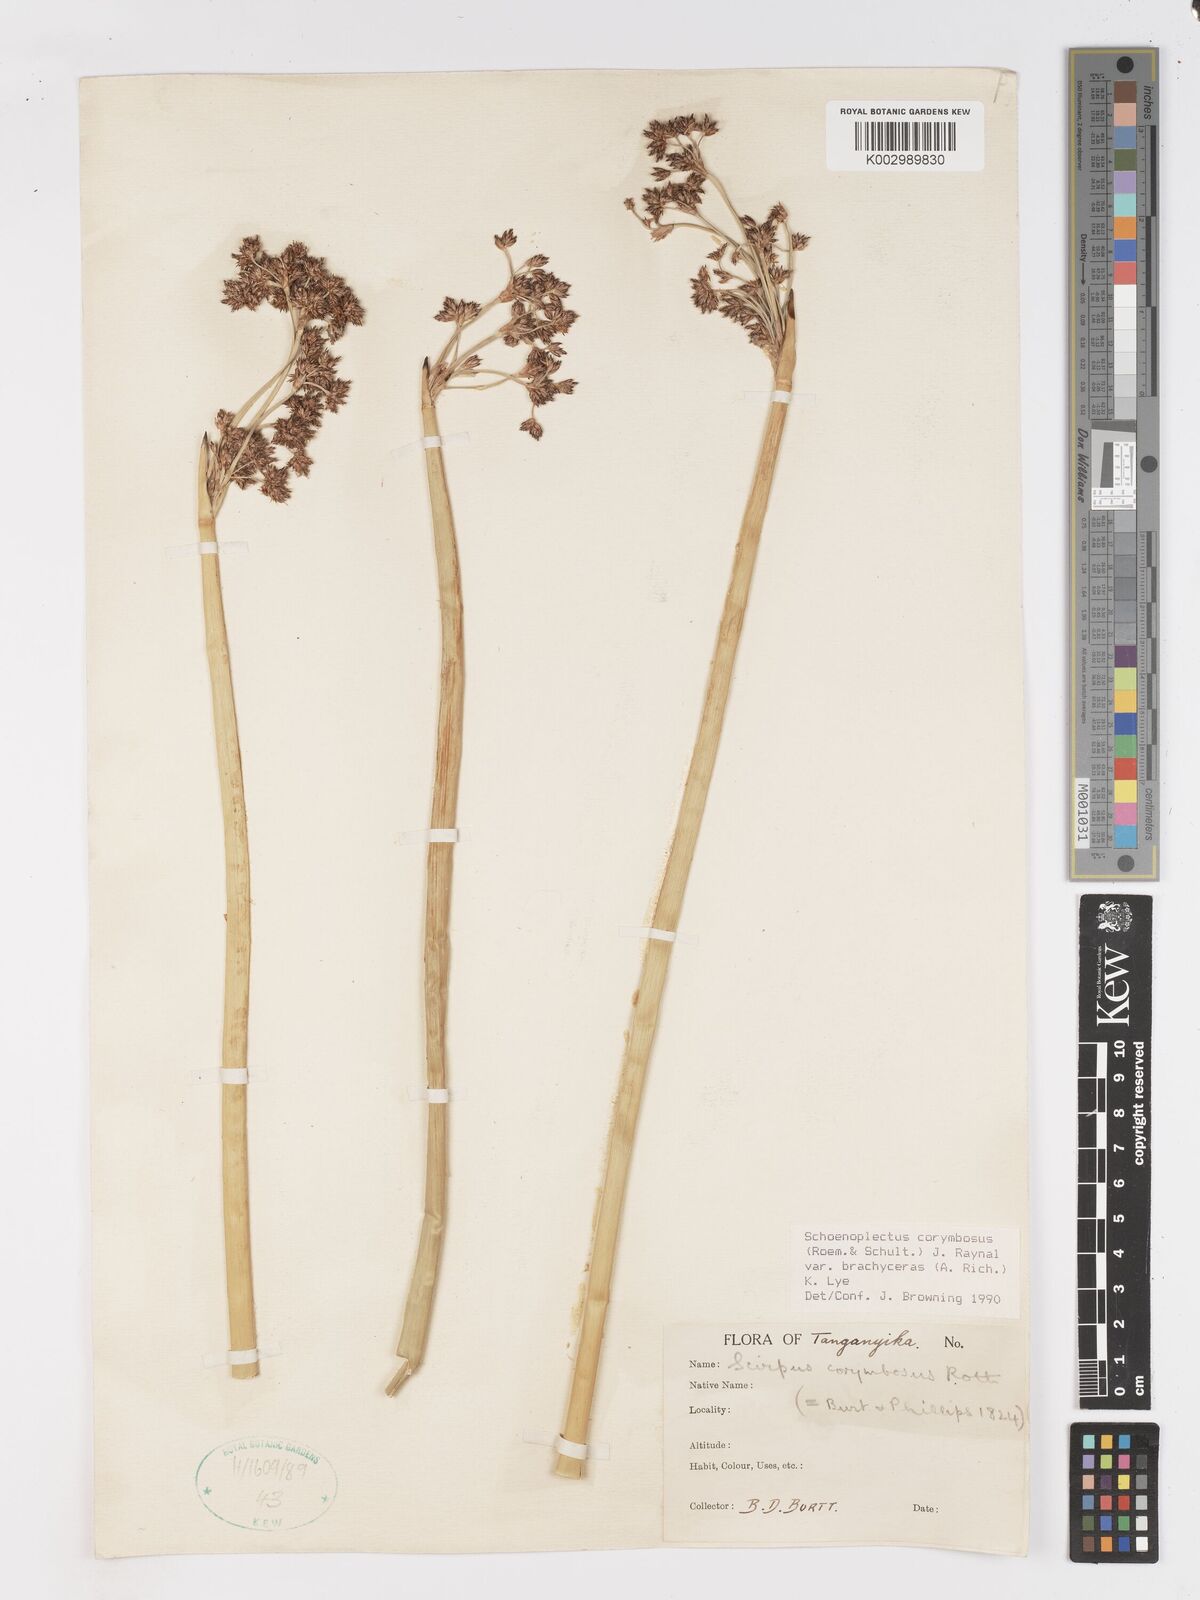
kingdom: Plantae
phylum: Tracheophyta
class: Liliopsida
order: Poales
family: Cyperaceae
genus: Schoenoplectiella
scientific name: Schoenoplectiella brachyceras
